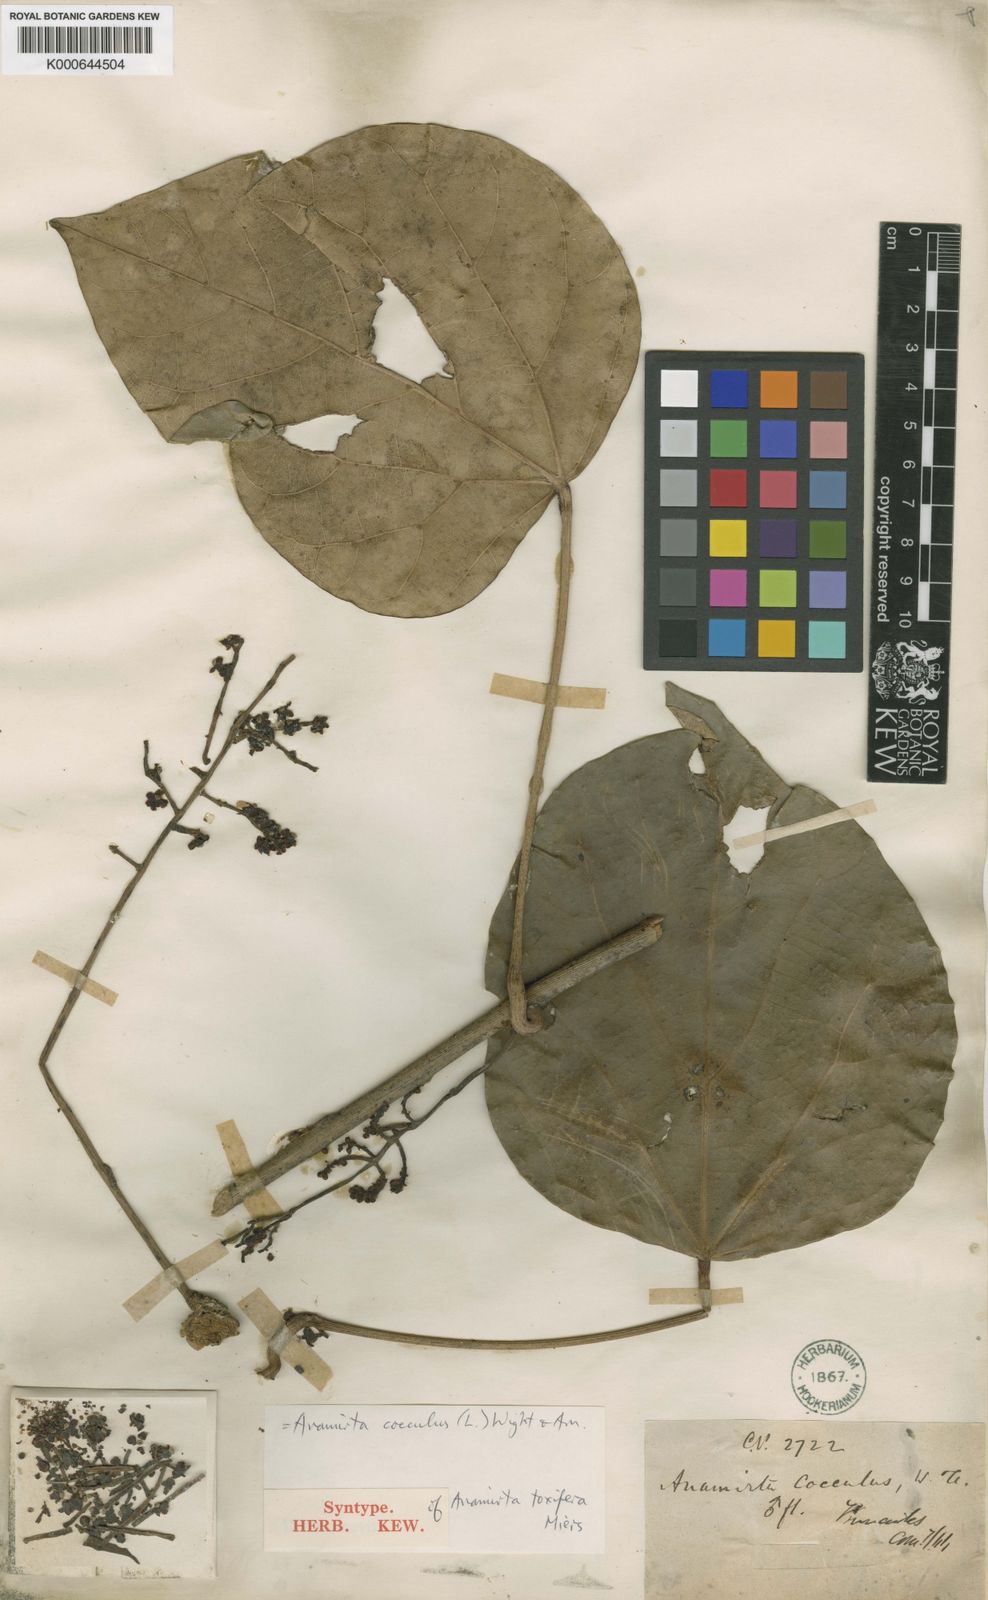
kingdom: Plantae
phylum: Tracheophyta
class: Magnoliopsida
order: Ranunculales
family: Menispermaceae
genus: Anamirta
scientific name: Anamirta cocculus
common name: Levantnut
